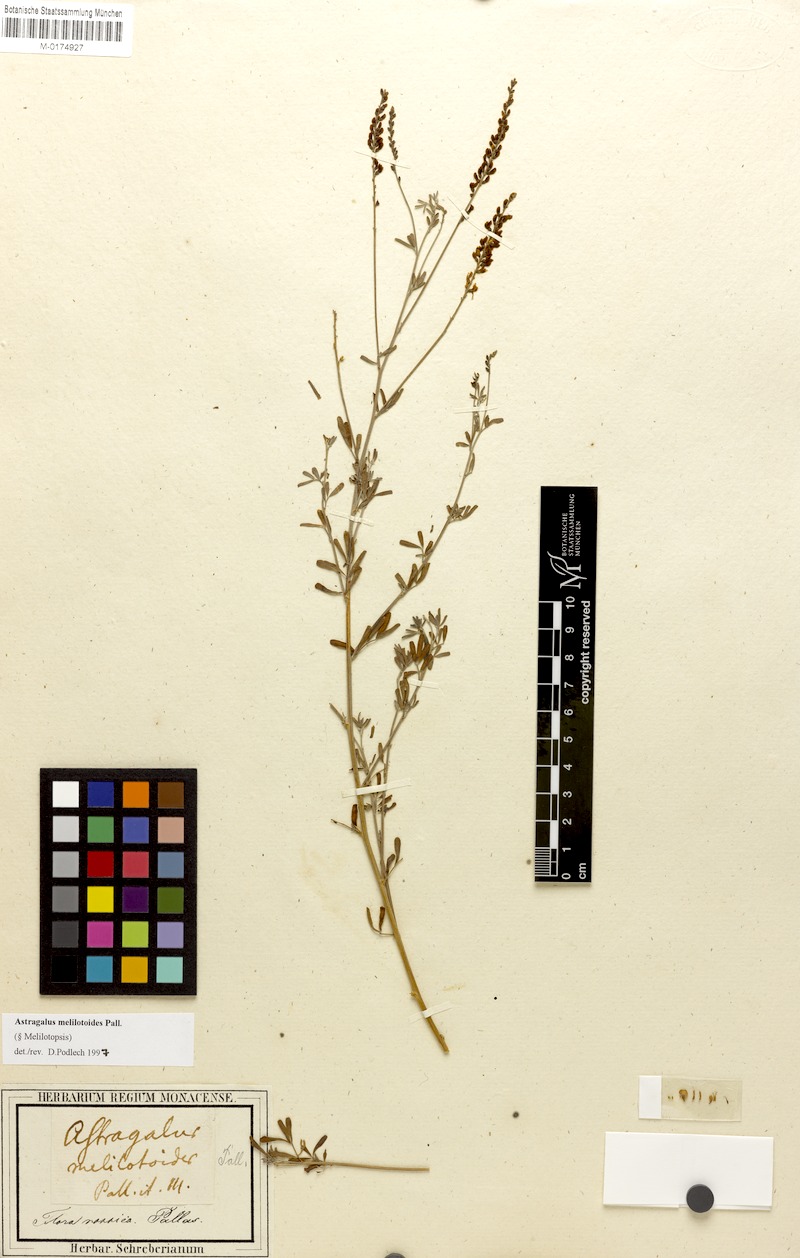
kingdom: Plantae
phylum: Tracheophyta
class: Magnoliopsida
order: Fabales
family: Fabaceae
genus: Astragalus
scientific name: Astragalus melilotoides
